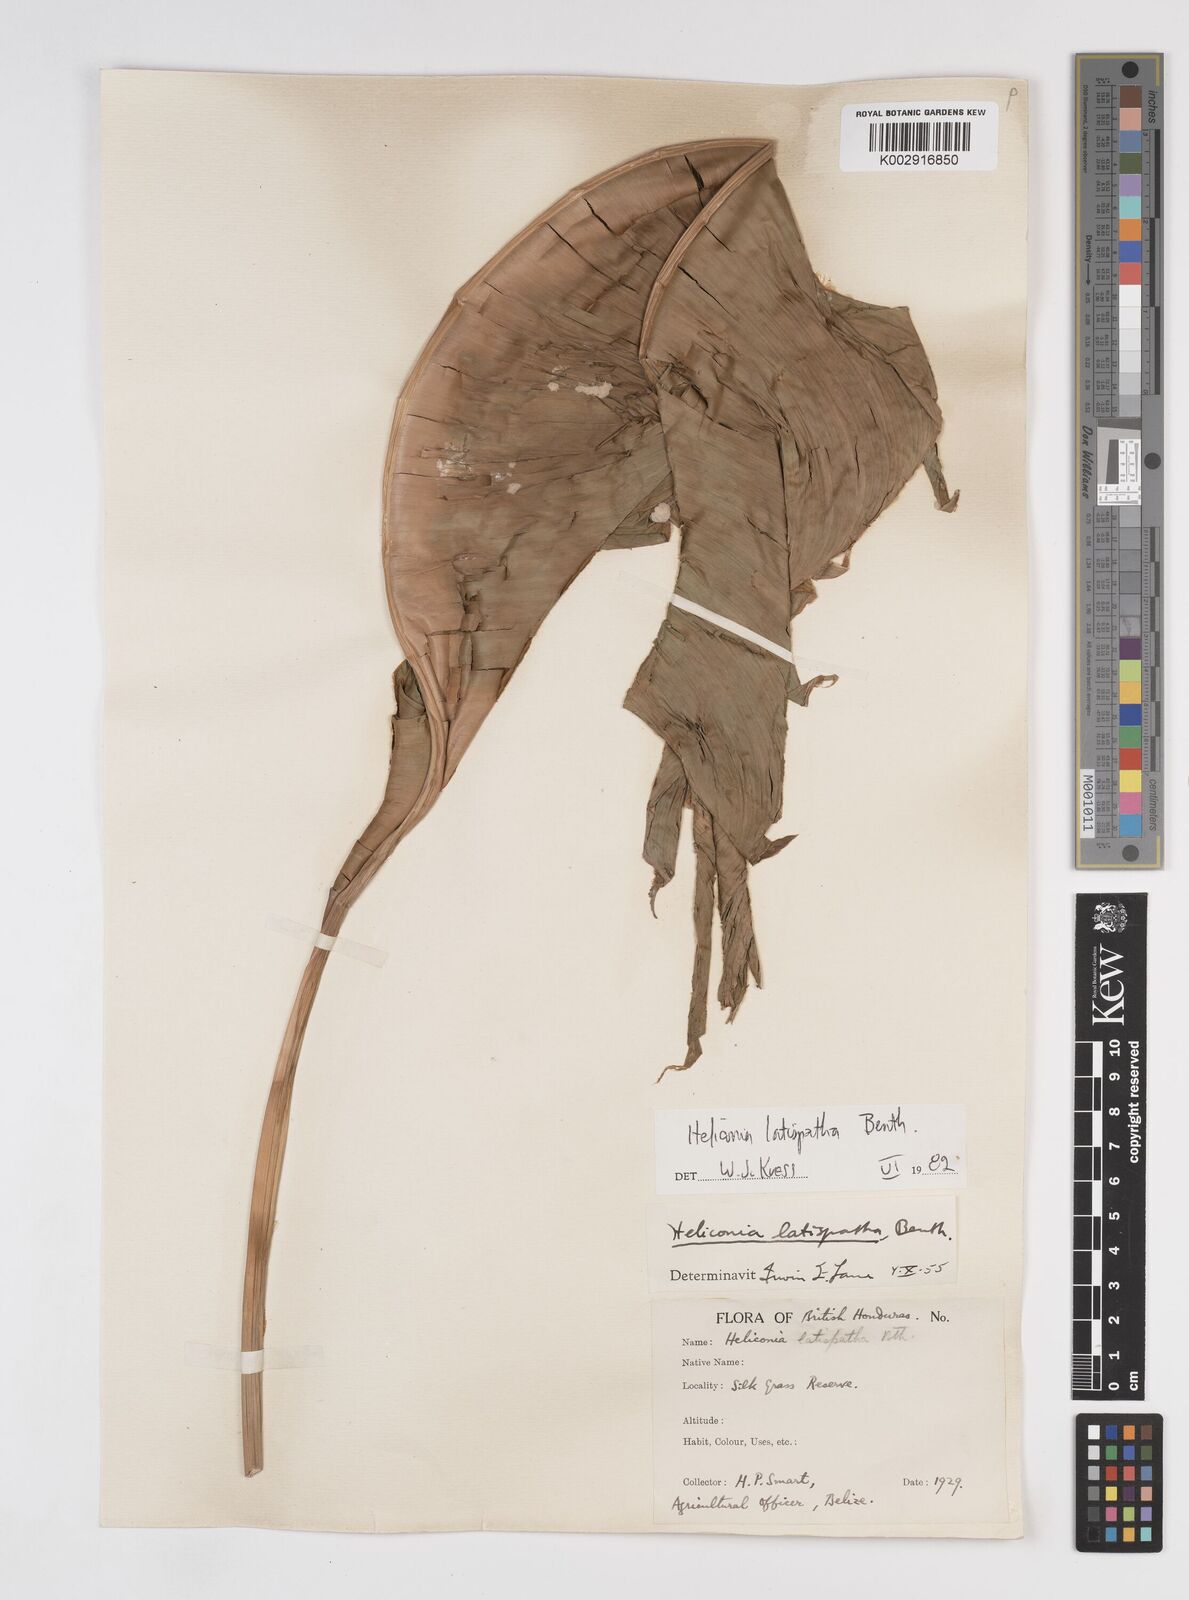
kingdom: Plantae
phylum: Tracheophyta
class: Liliopsida
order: Zingiberales
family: Heliconiaceae
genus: Heliconia
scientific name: Heliconia latispatha
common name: Expanded lobsterclaw
